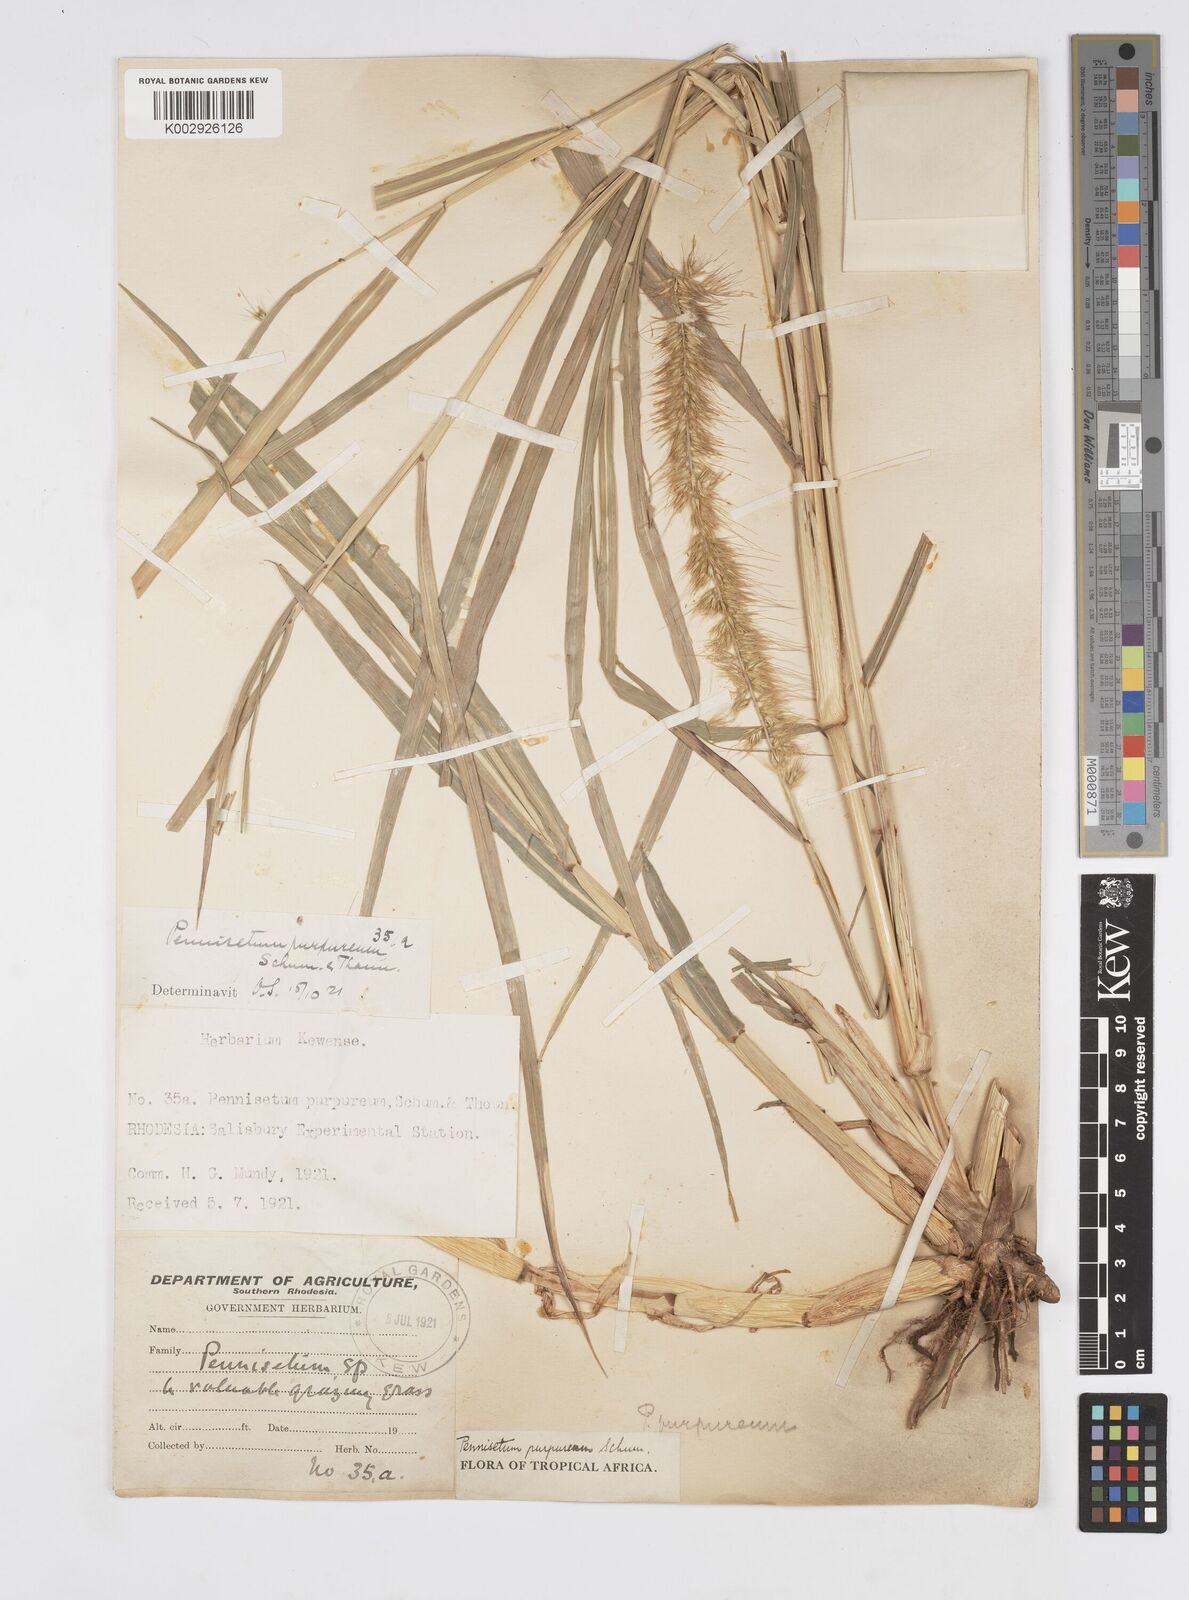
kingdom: Plantae
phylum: Tracheophyta
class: Liliopsida
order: Poales
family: Poaceae
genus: Cenchrus
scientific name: Cenchrus purpureus
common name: Elephant grass
